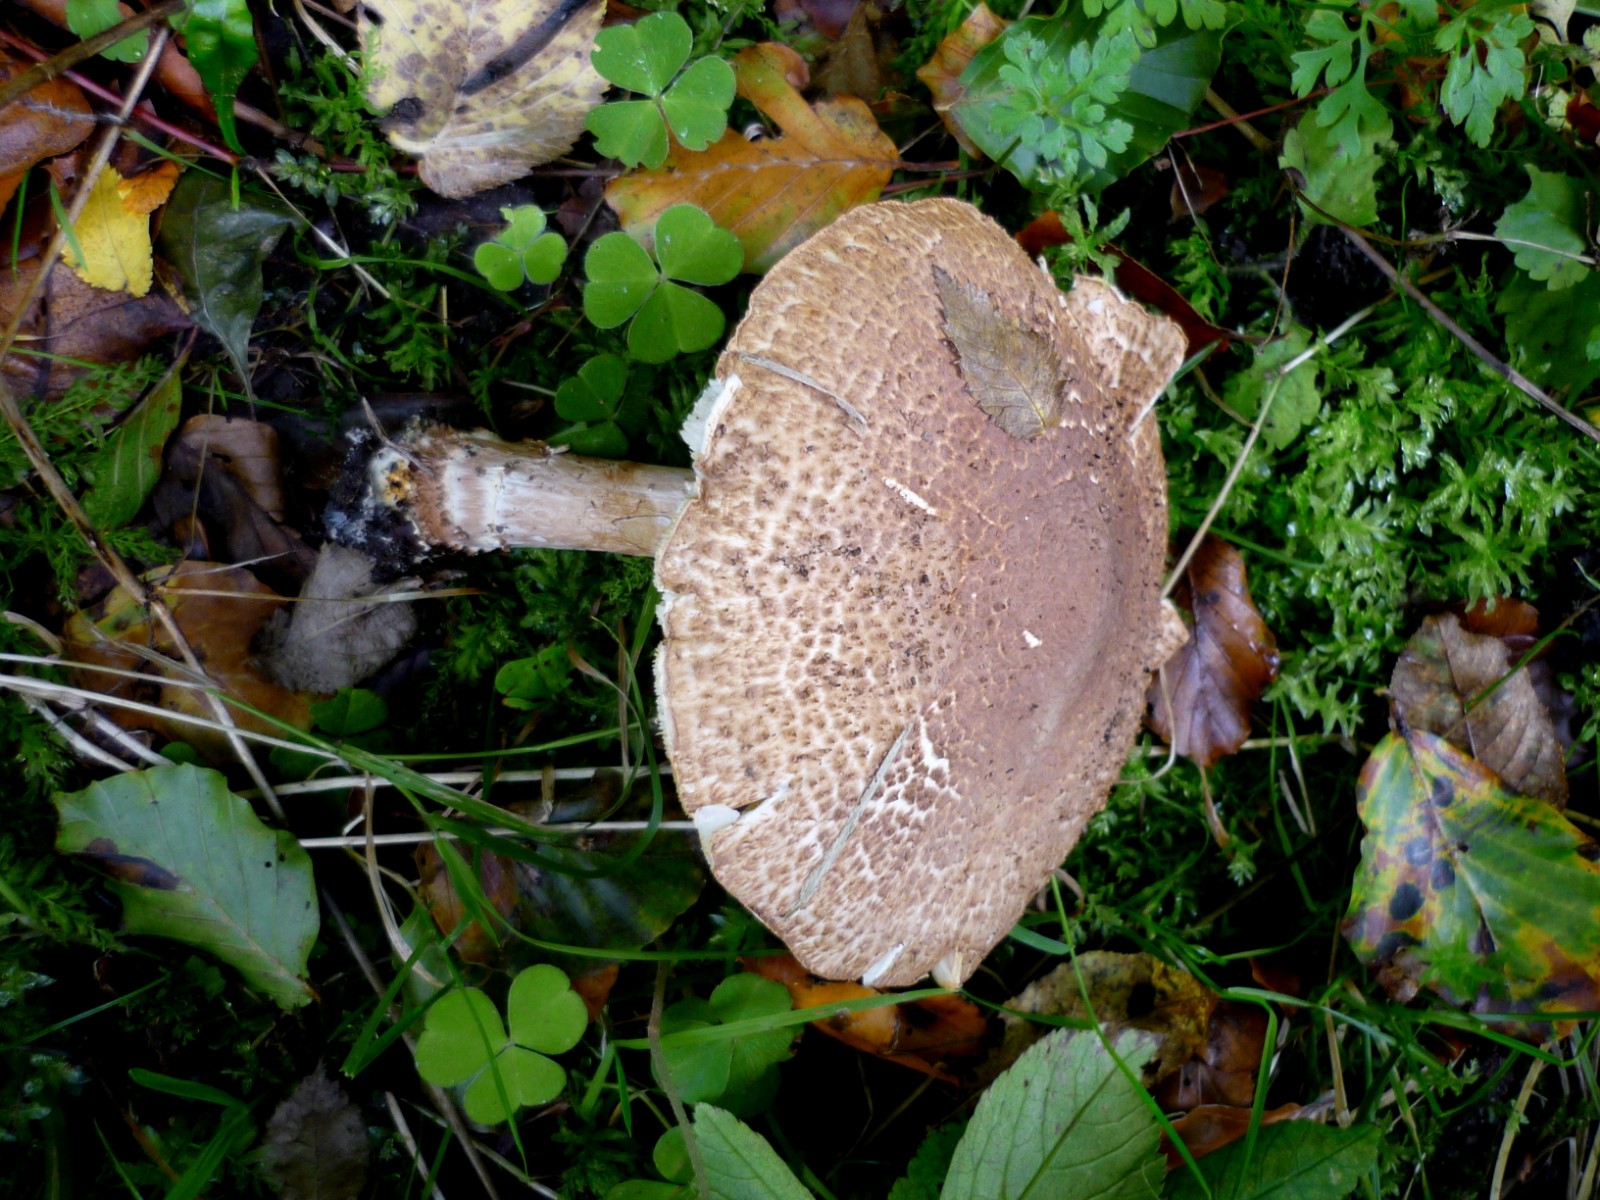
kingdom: Fungi
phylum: Basidiomycota
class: Agaricomycetes
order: Agaricales
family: Agaricaceae
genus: Echinoderma
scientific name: Echinoderma asperum
